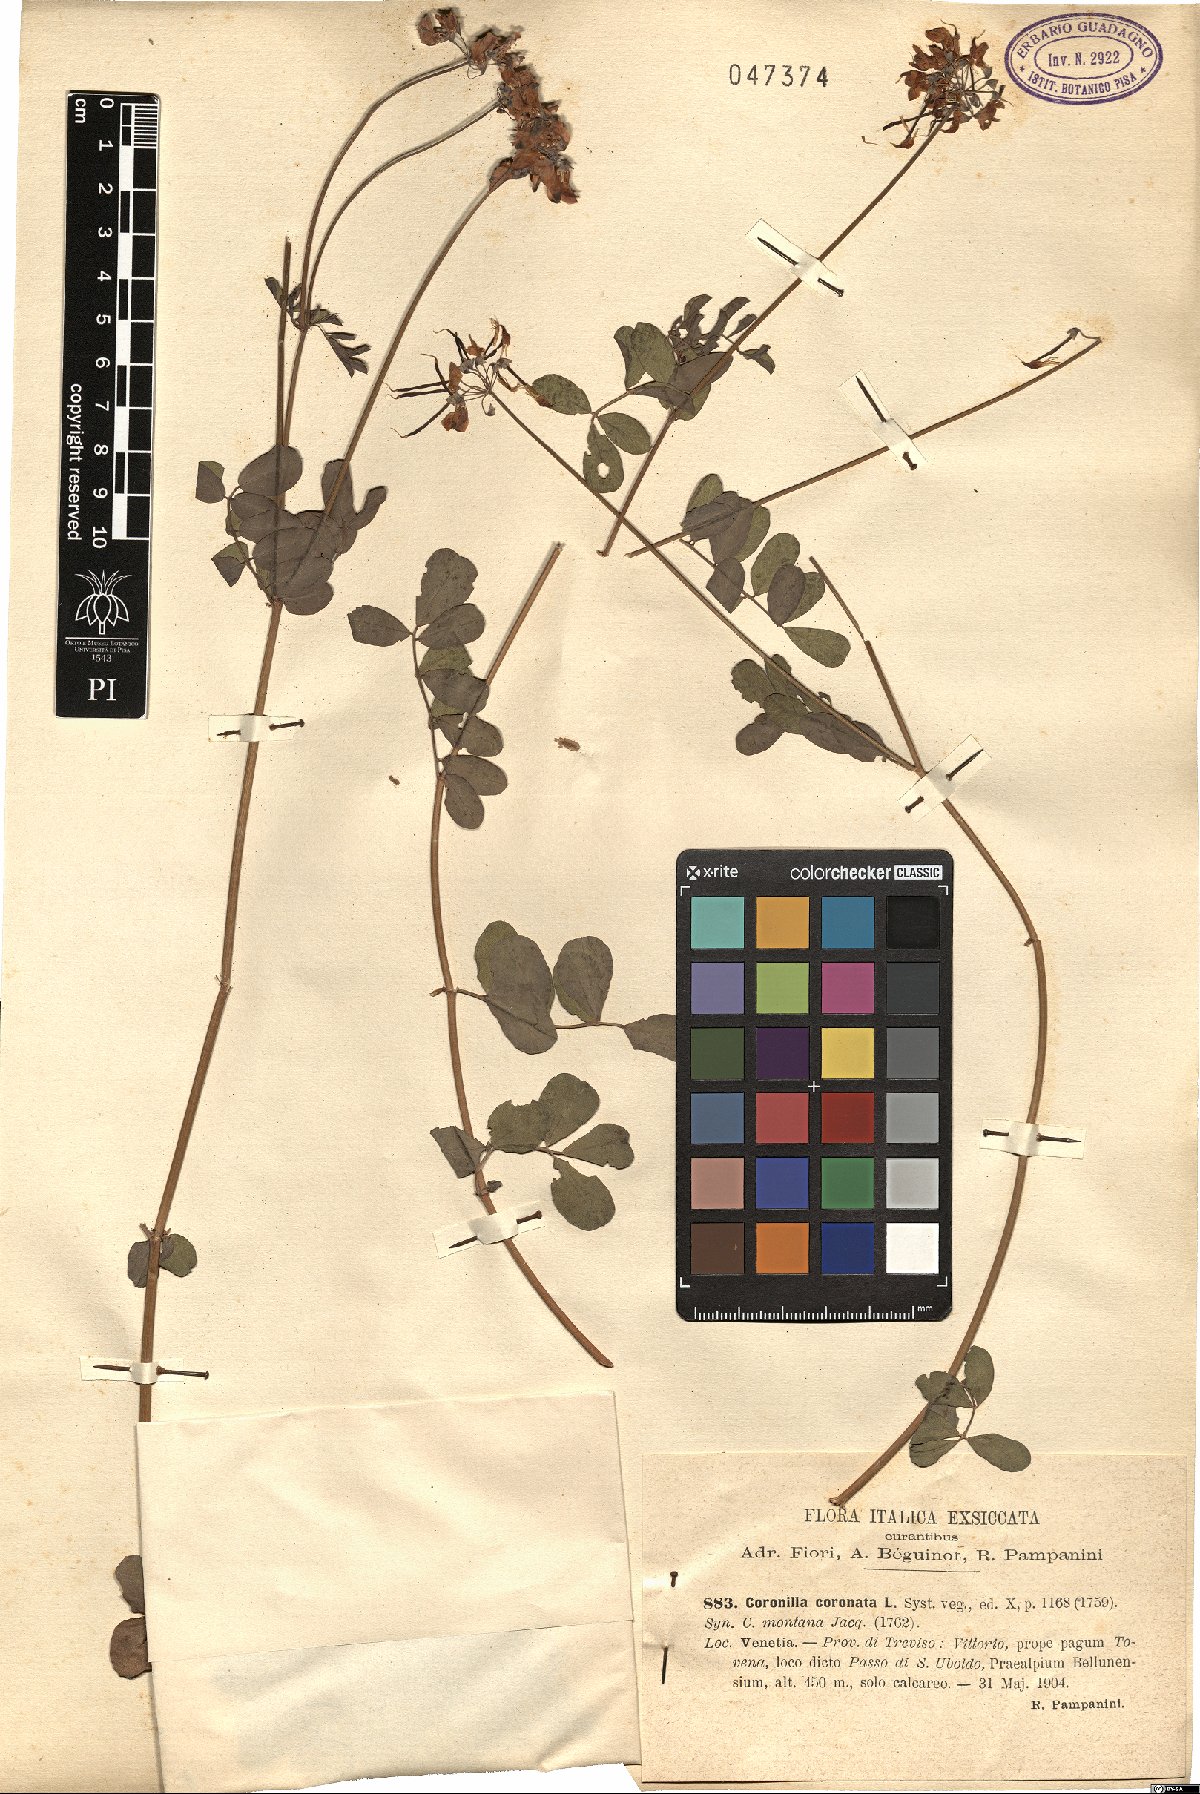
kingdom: Plantae
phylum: Tracheophyta
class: Magnoliopsida
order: Fabales
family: Fabaceae
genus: Coronilla
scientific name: Coronilla coronata
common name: Scorpion-vetch
